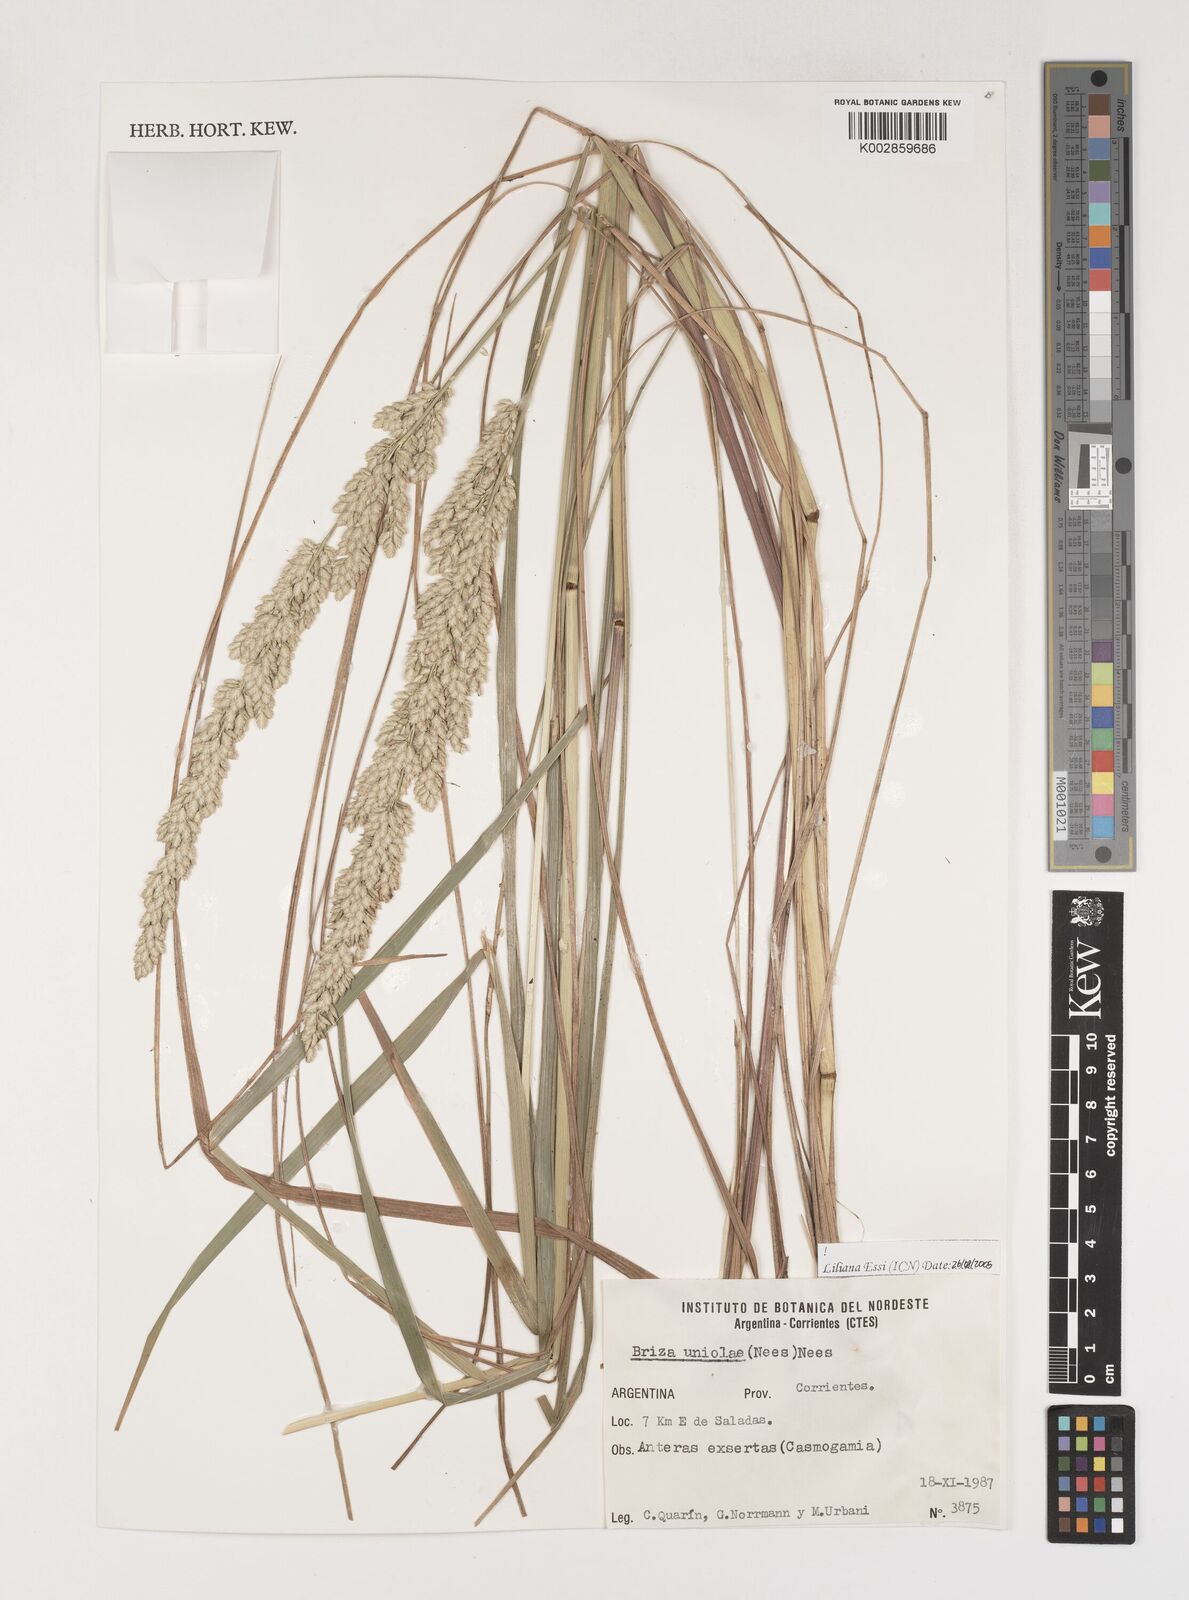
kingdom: Plantae
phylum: Tracheophyta
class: Liliopsida
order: Poales
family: Poaceae
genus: Poidium
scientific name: Poidium uniolae
